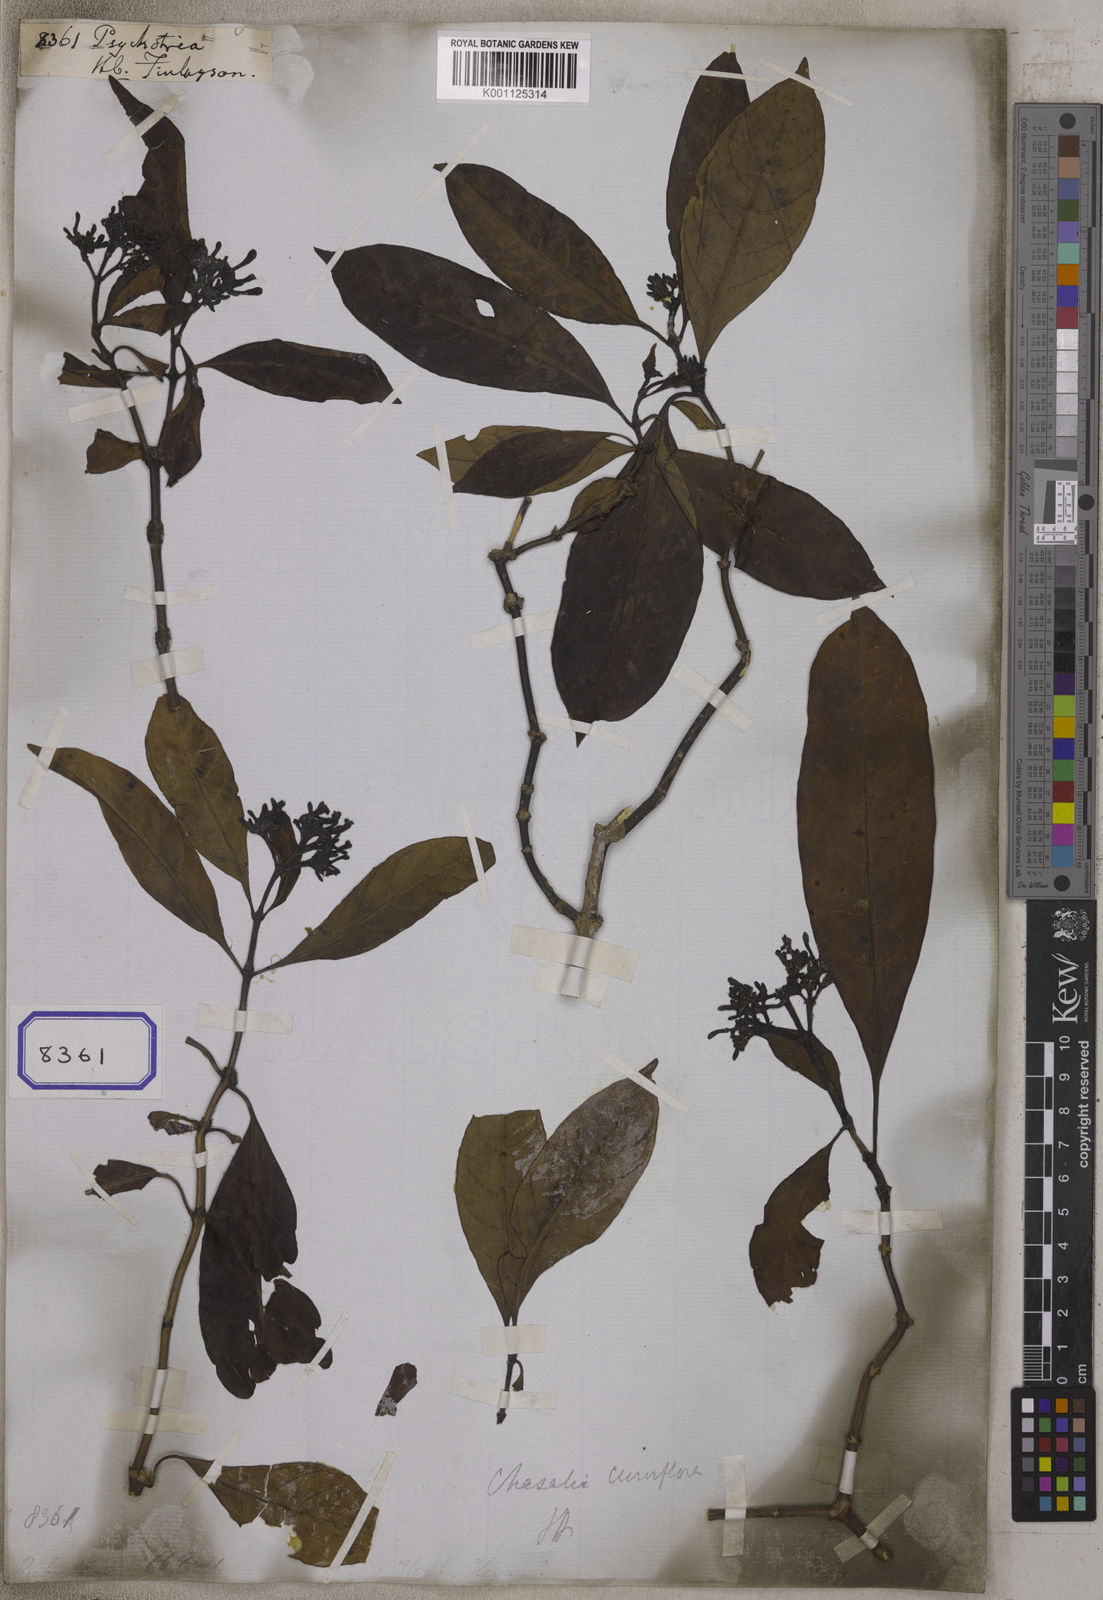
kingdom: Plantae
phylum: Tracheophyta
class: Magnoliopsida
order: Gentianales
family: Rubiaceae
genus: Psychotria
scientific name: Psychotria
